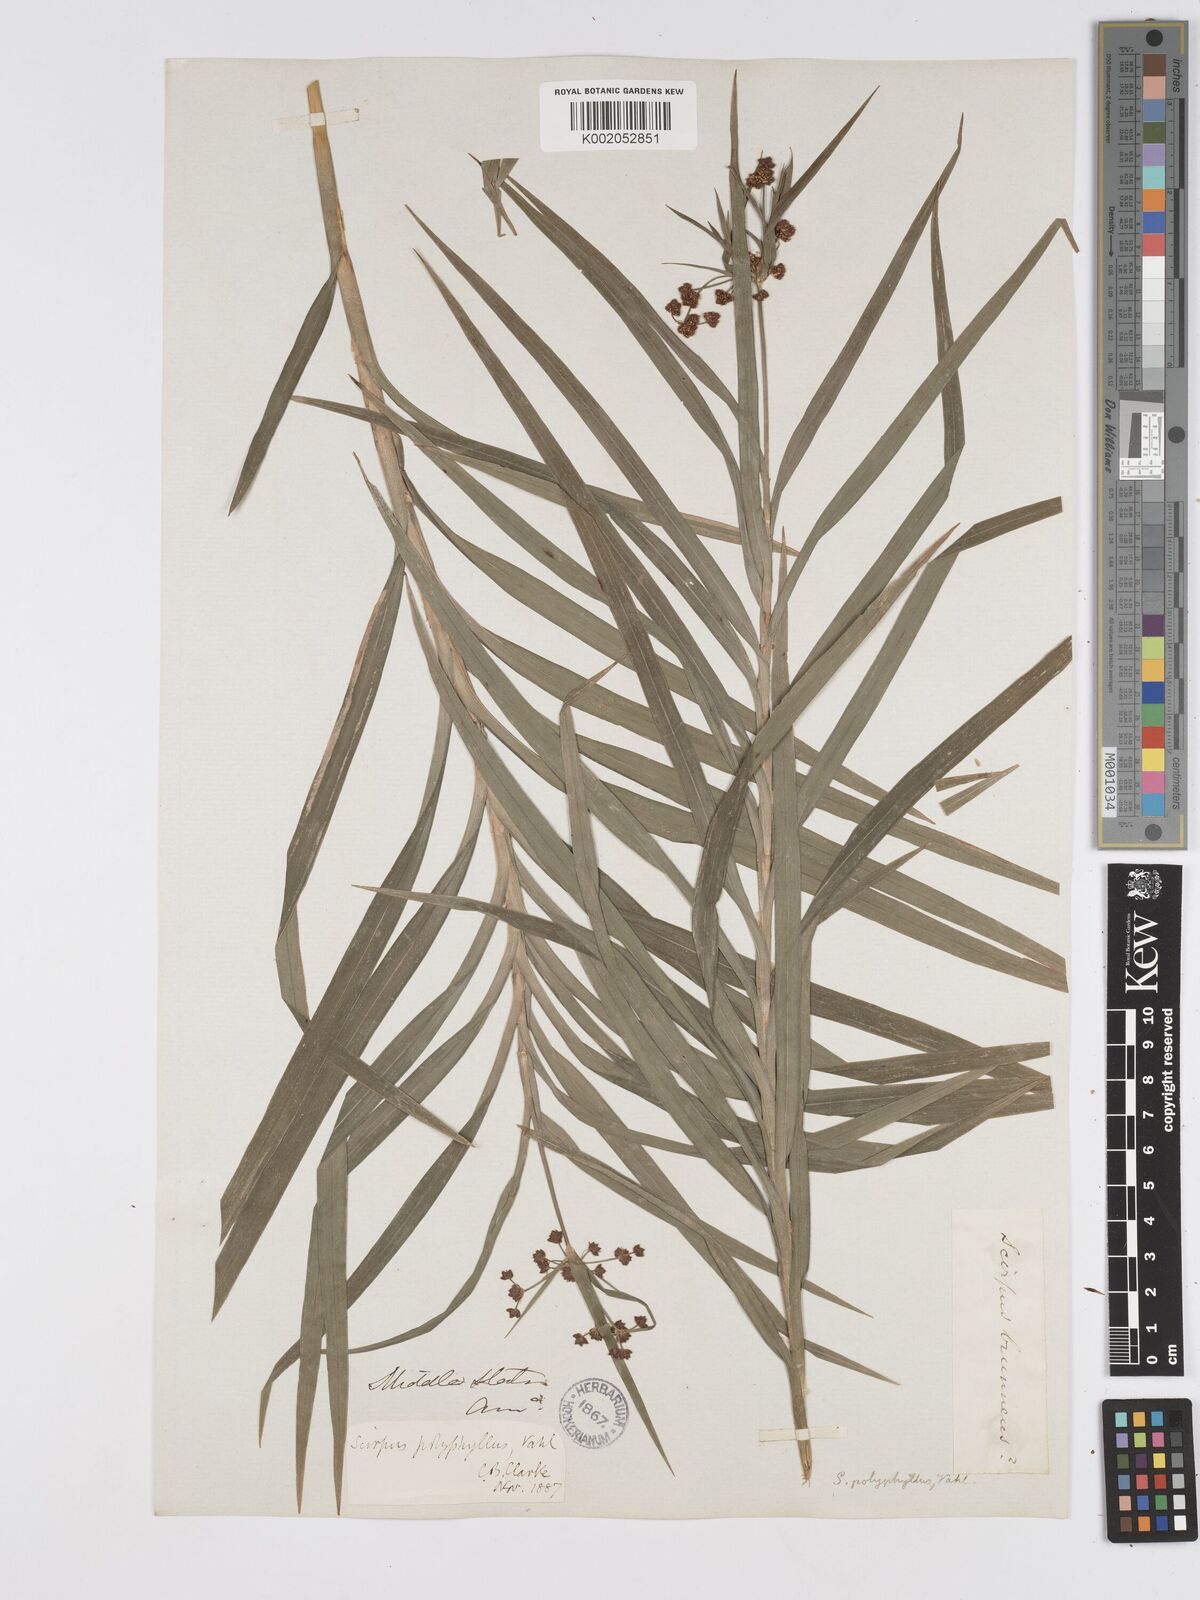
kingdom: Plantae
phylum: Tracheophyta
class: Liliopsida
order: Poales
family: Cyperaceae
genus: Scirpus
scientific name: Scirpus polyphyllus
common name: Leafy bulrush
